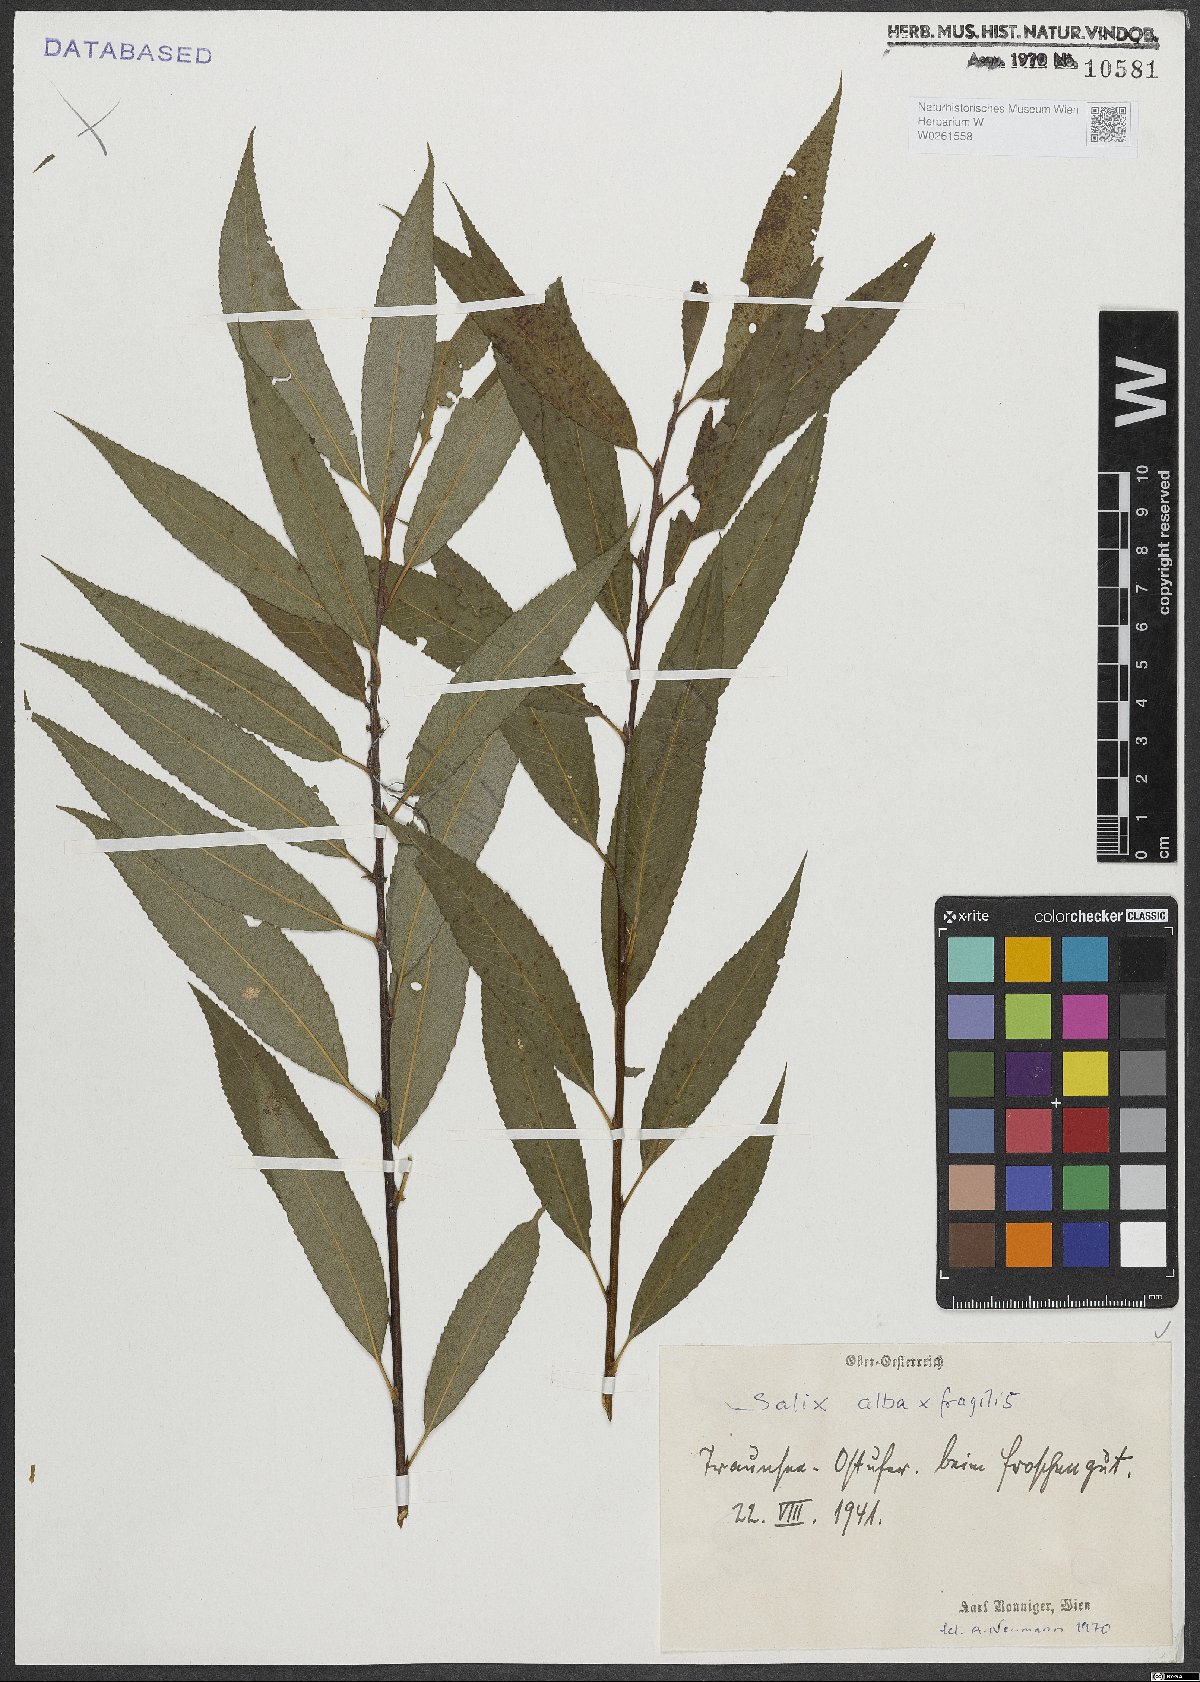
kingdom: Plantae
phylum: Tracheophyta
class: Magnoliopsida
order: Malpighiales
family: Salicaceae
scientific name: Salicaceae
